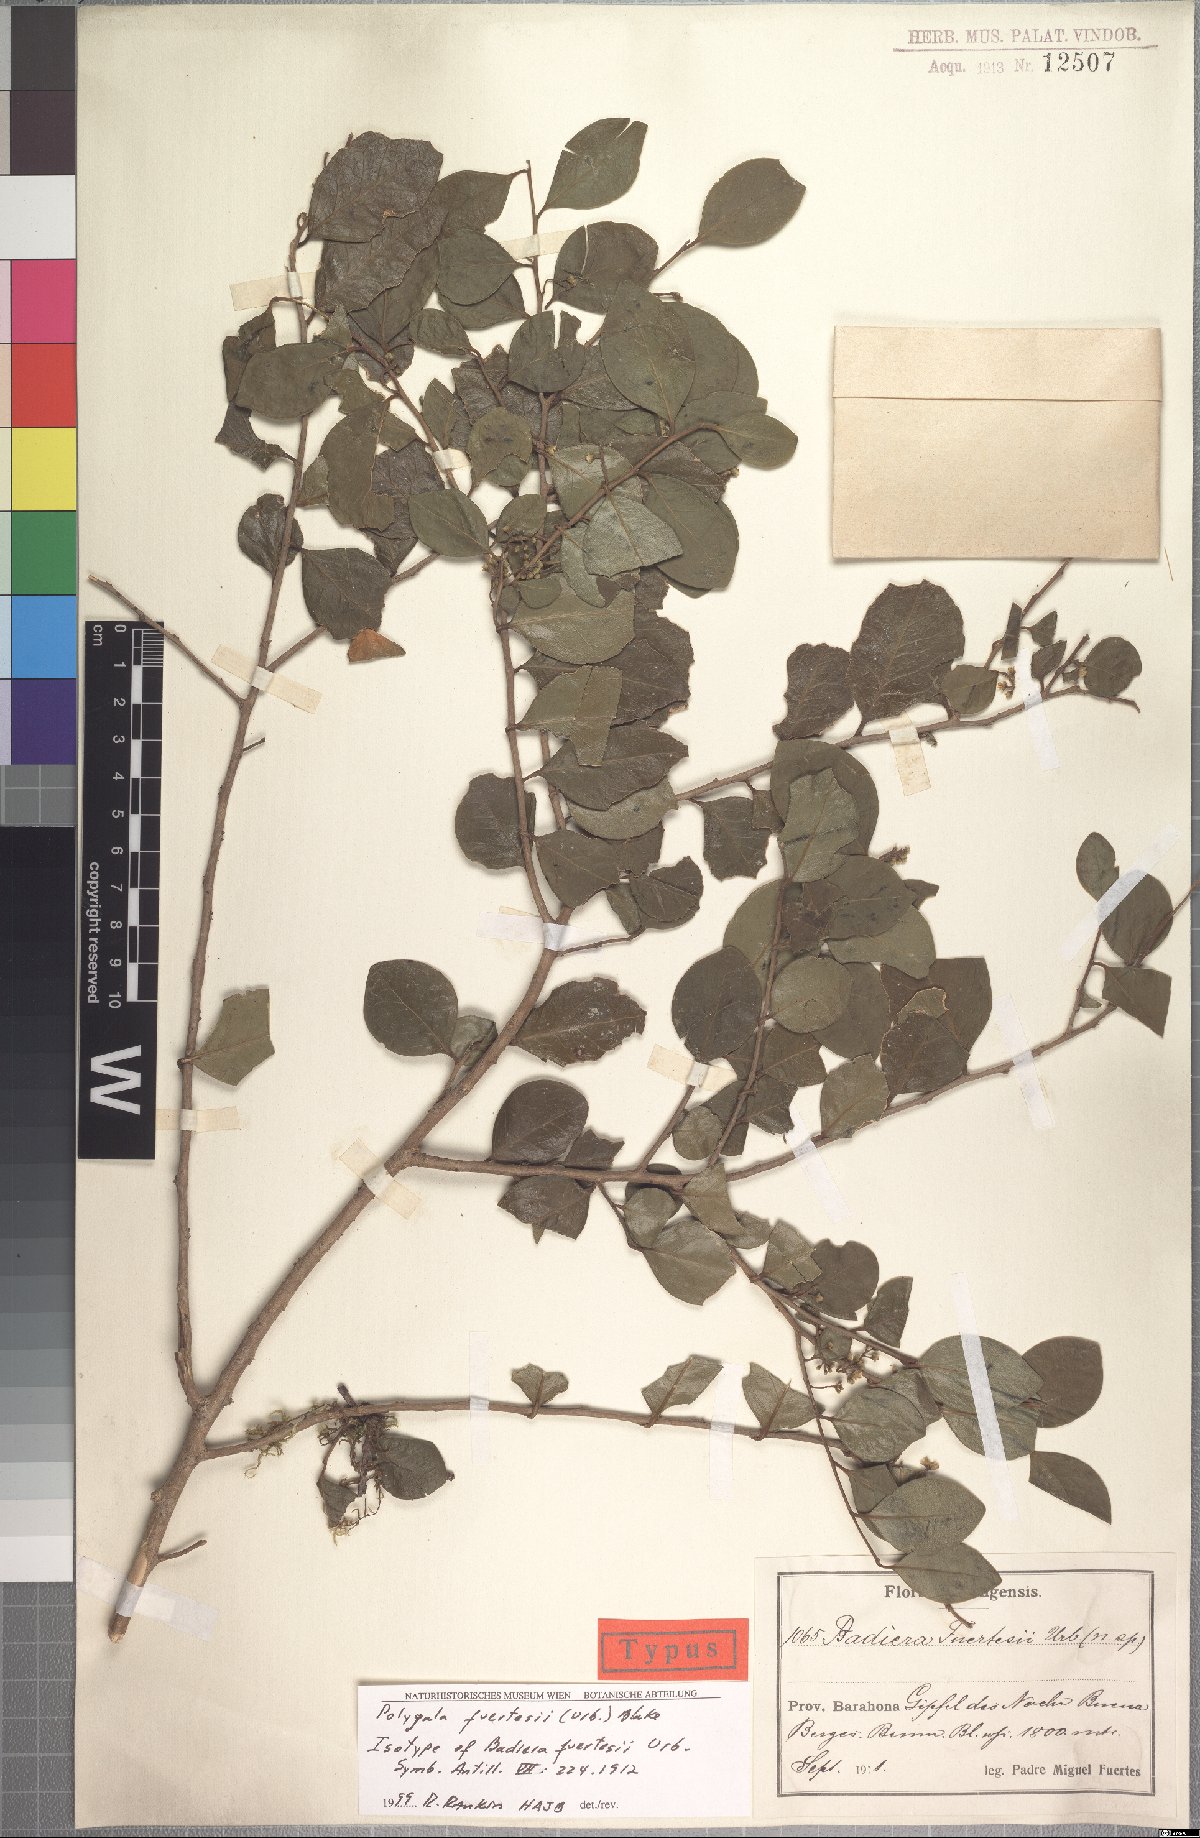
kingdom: Plantae
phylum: Tracheophyta
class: Magnoliopsida
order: Fabales
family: Polygalaceae
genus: Badiera
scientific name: Badiera fuertesii
